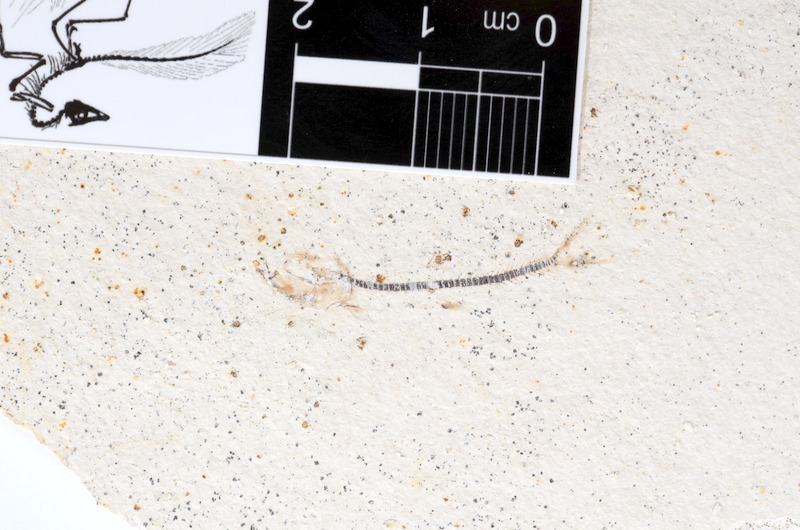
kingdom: Animalia
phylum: Chordata
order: Salmoniformes
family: Orthogonikleithridae
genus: Orthogonikleithrus
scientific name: Orthogonikleithrus hoelli
